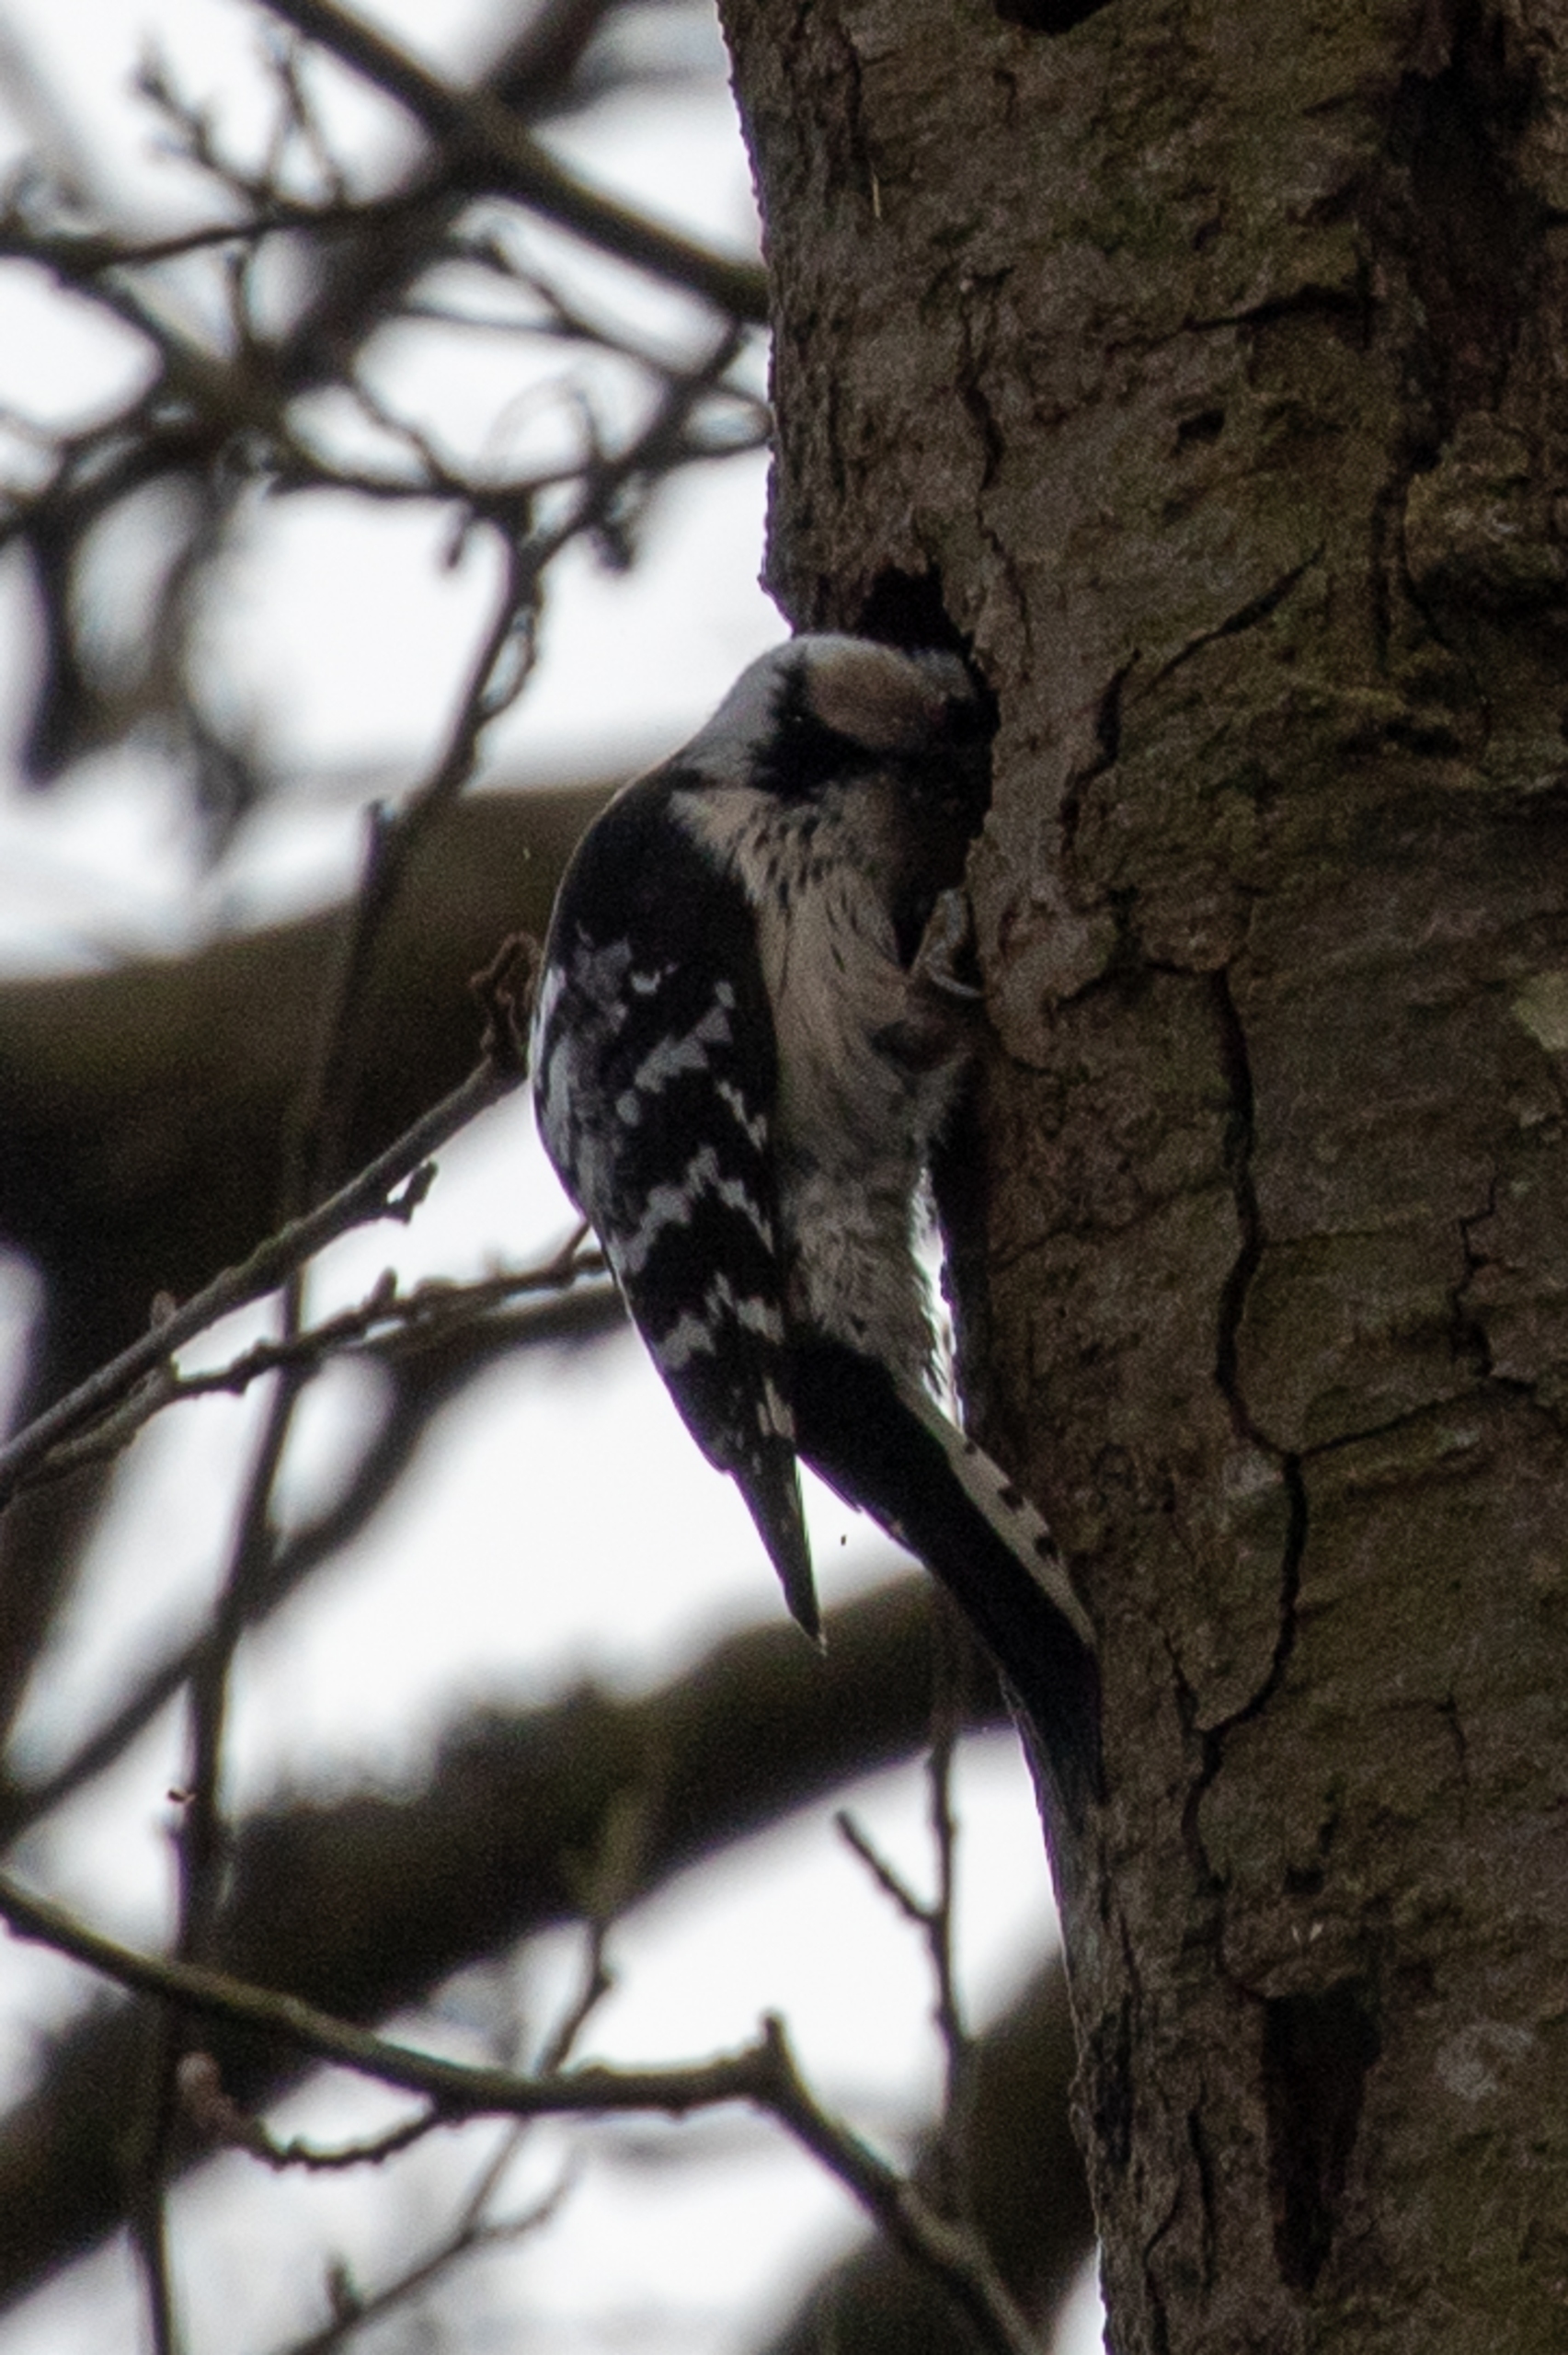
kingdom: Animalia
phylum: Chordata
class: Aves
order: Piciformes
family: Picidae
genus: Dryobates
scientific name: Dryobates minor
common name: Lille flagspætte
